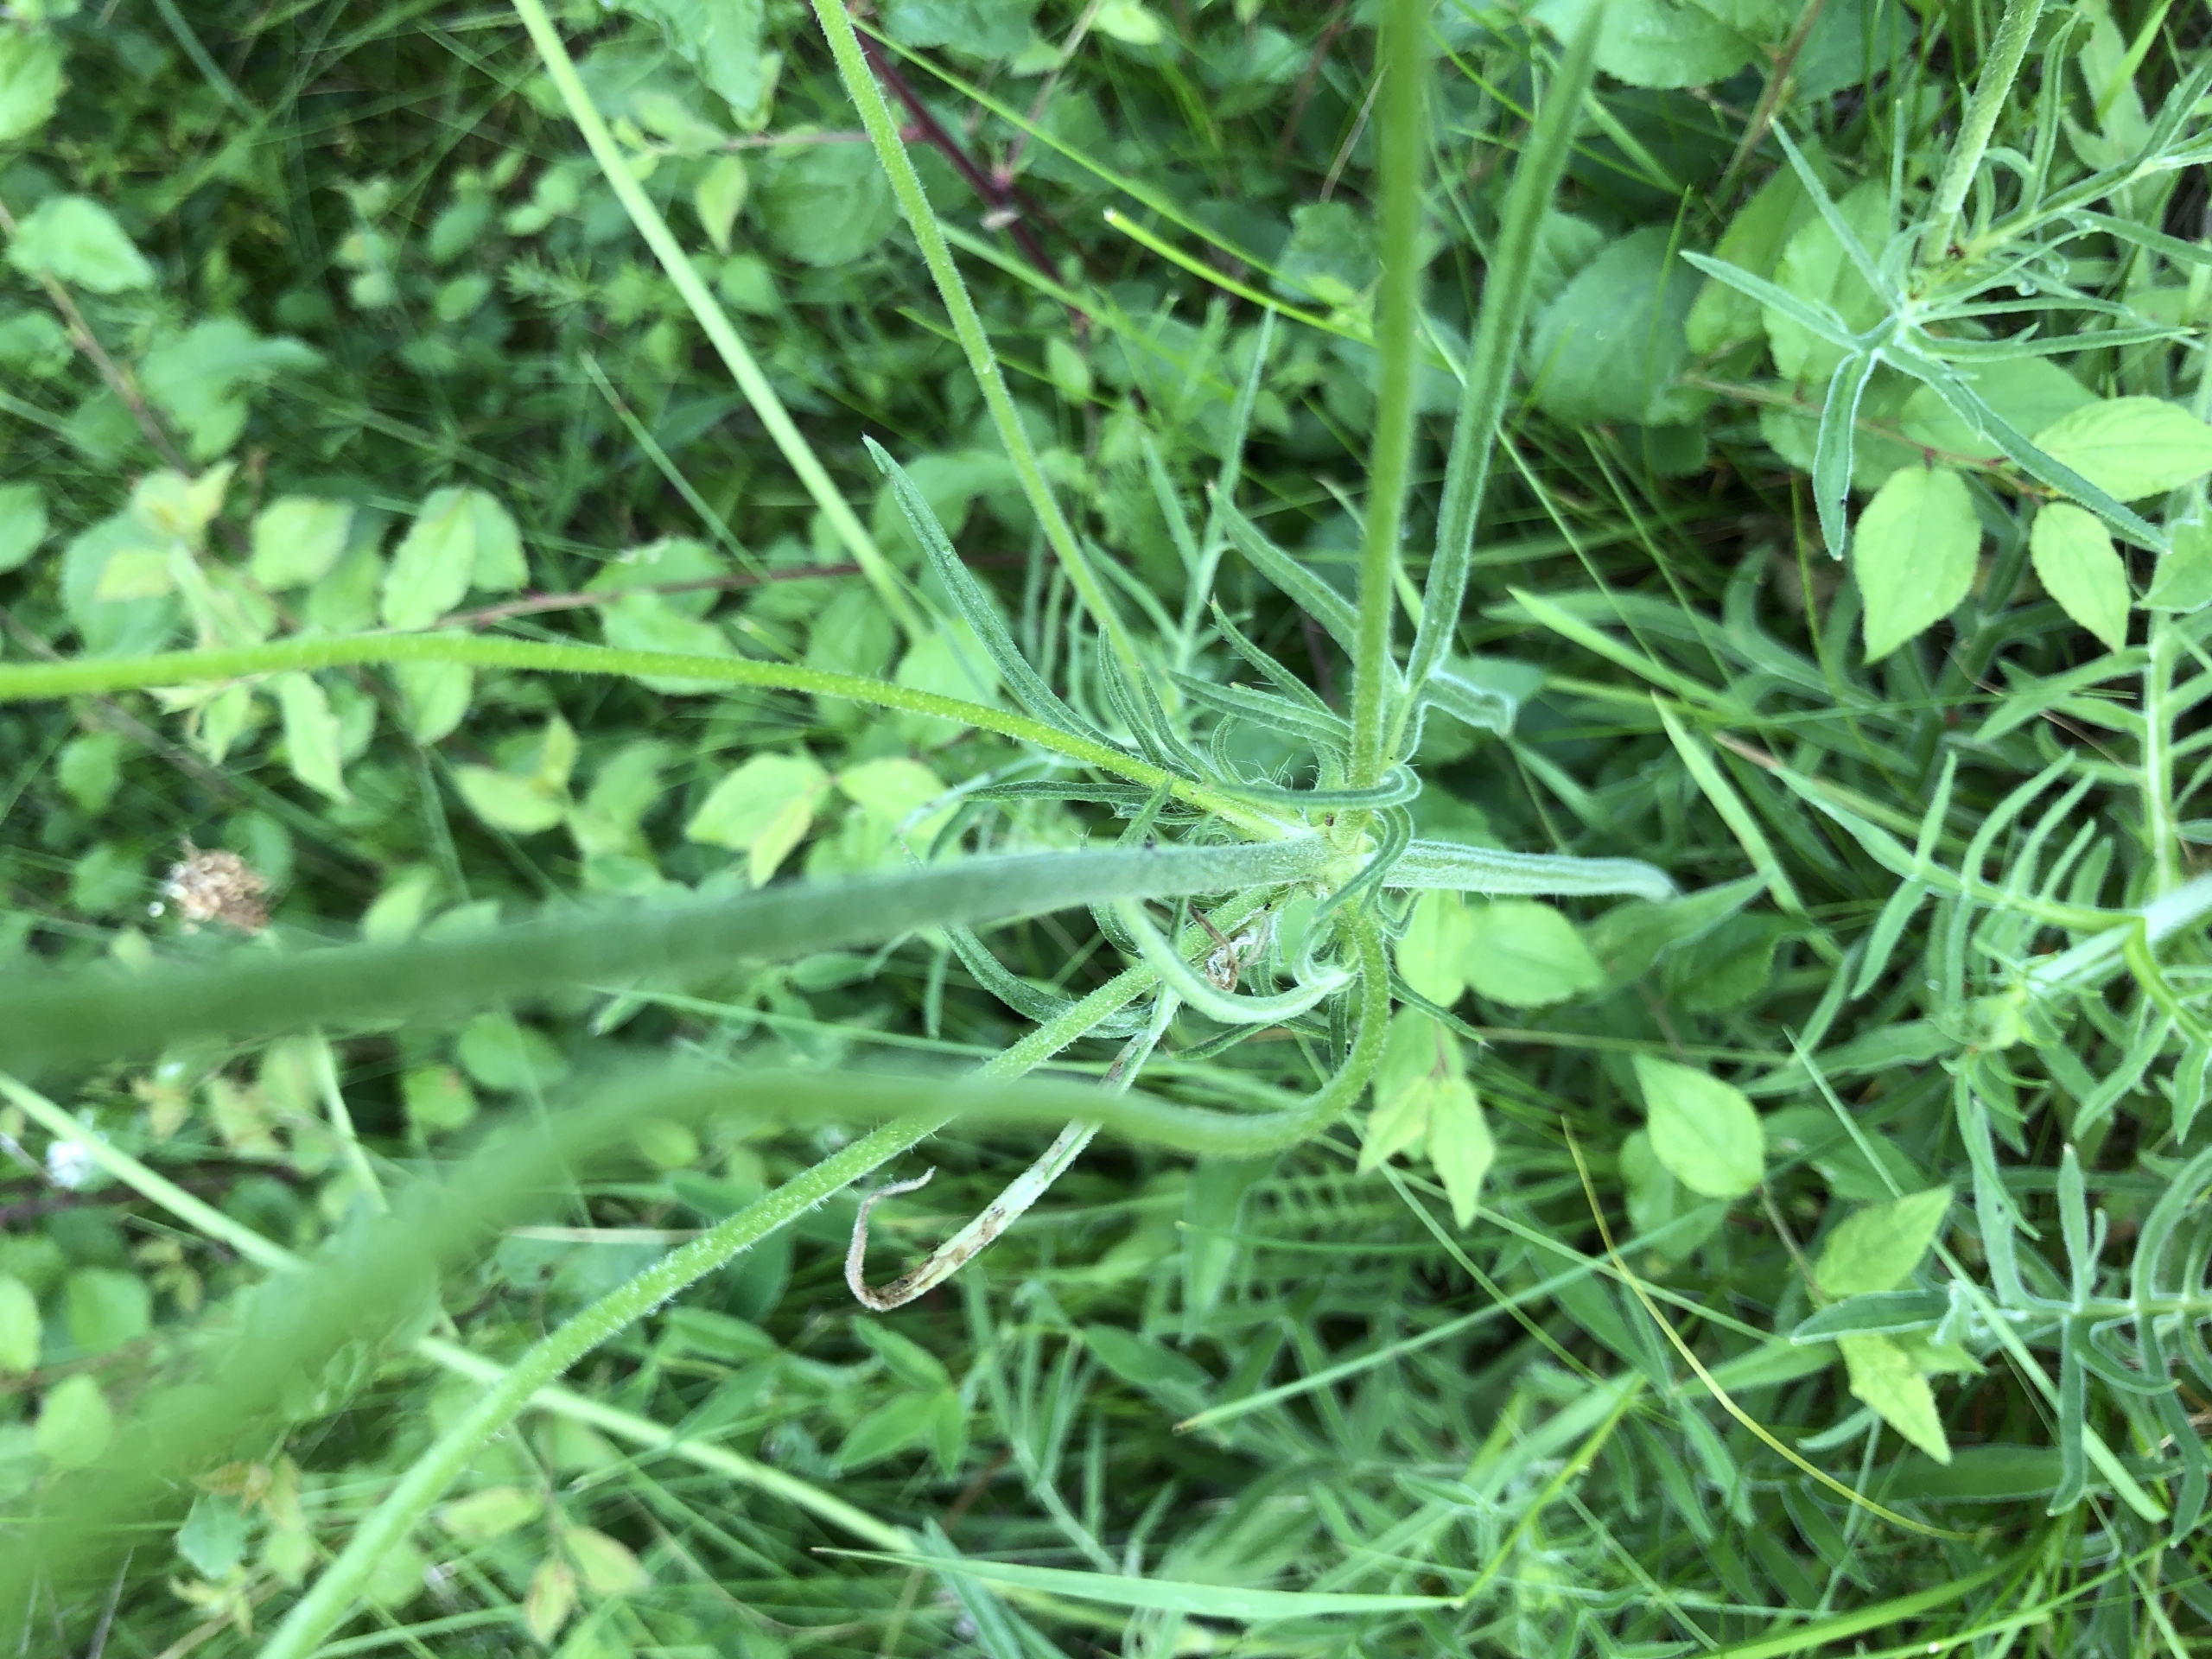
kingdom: Plantae
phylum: Tracheophyta
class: Magnoliopsida
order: Dipsacales
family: Caprifoliaceae
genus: Knautia
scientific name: Knautia arvensis
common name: Blåhat
